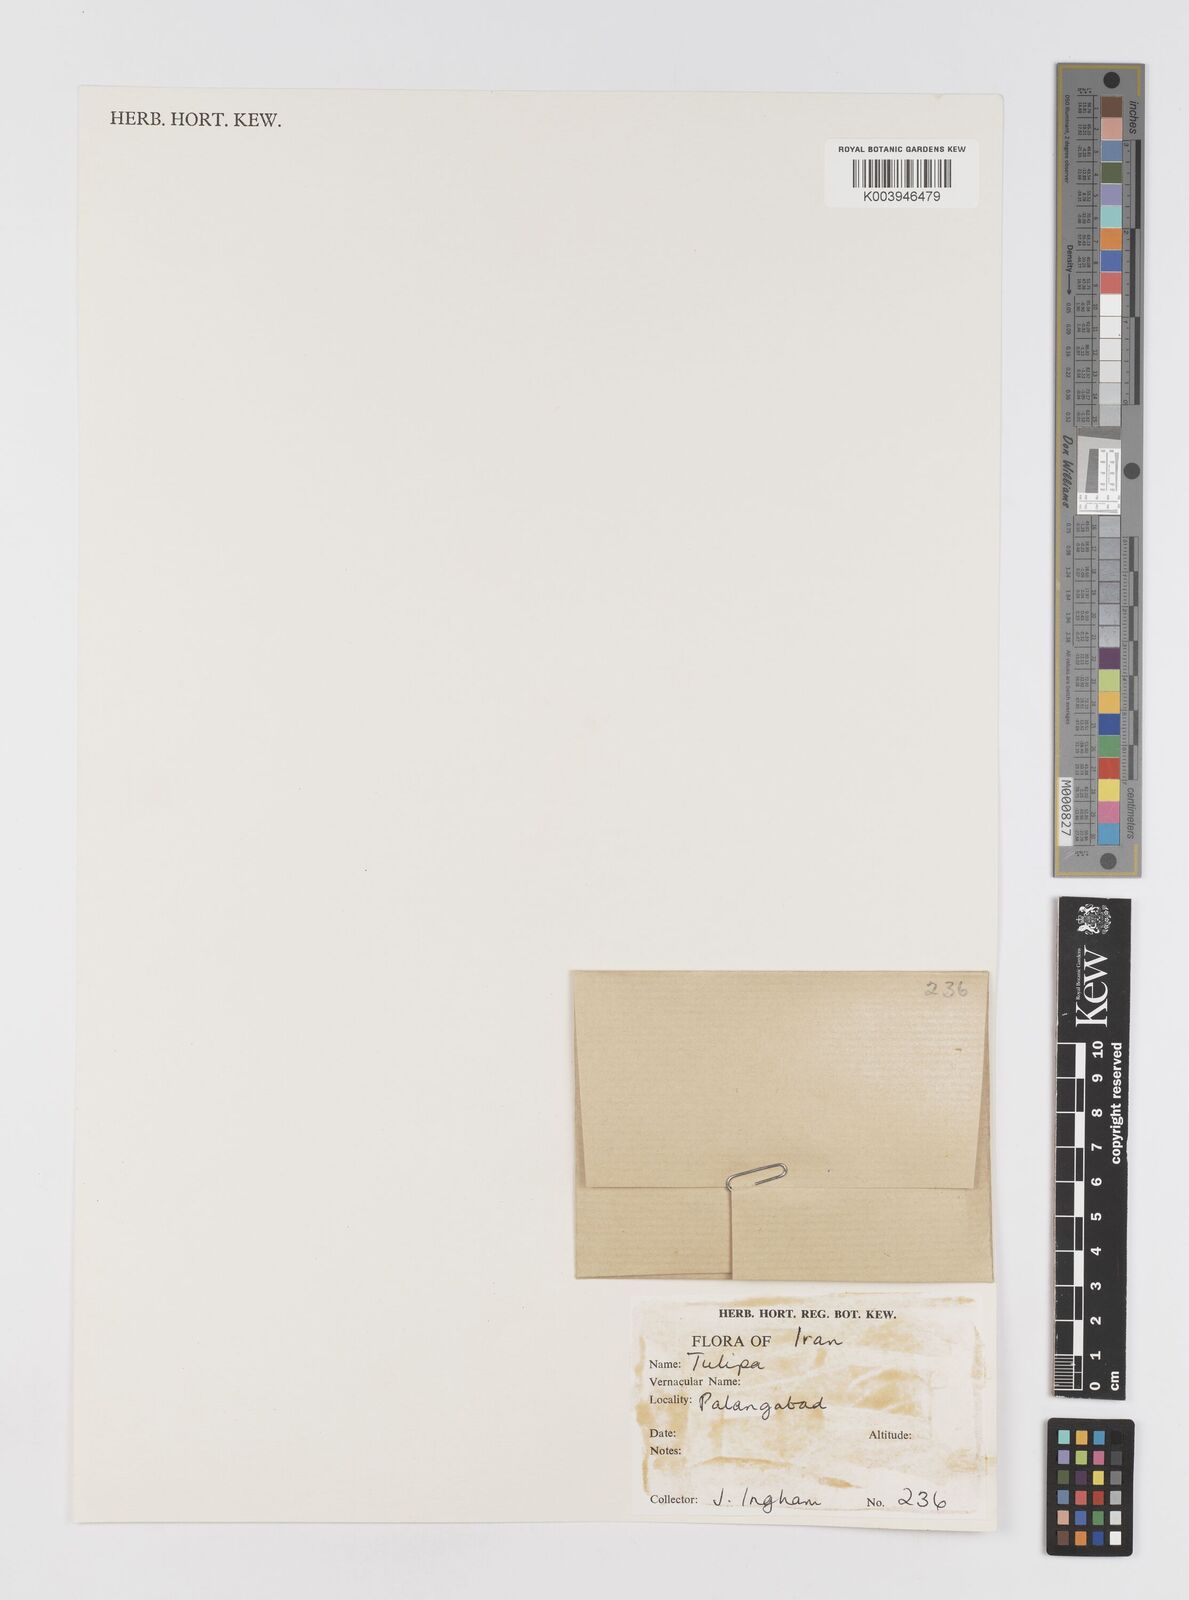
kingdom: Plantae
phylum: Tracheophyta
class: Liliopsida
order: Liliales
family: Liliaceae
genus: Tulipa
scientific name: Tulipa
